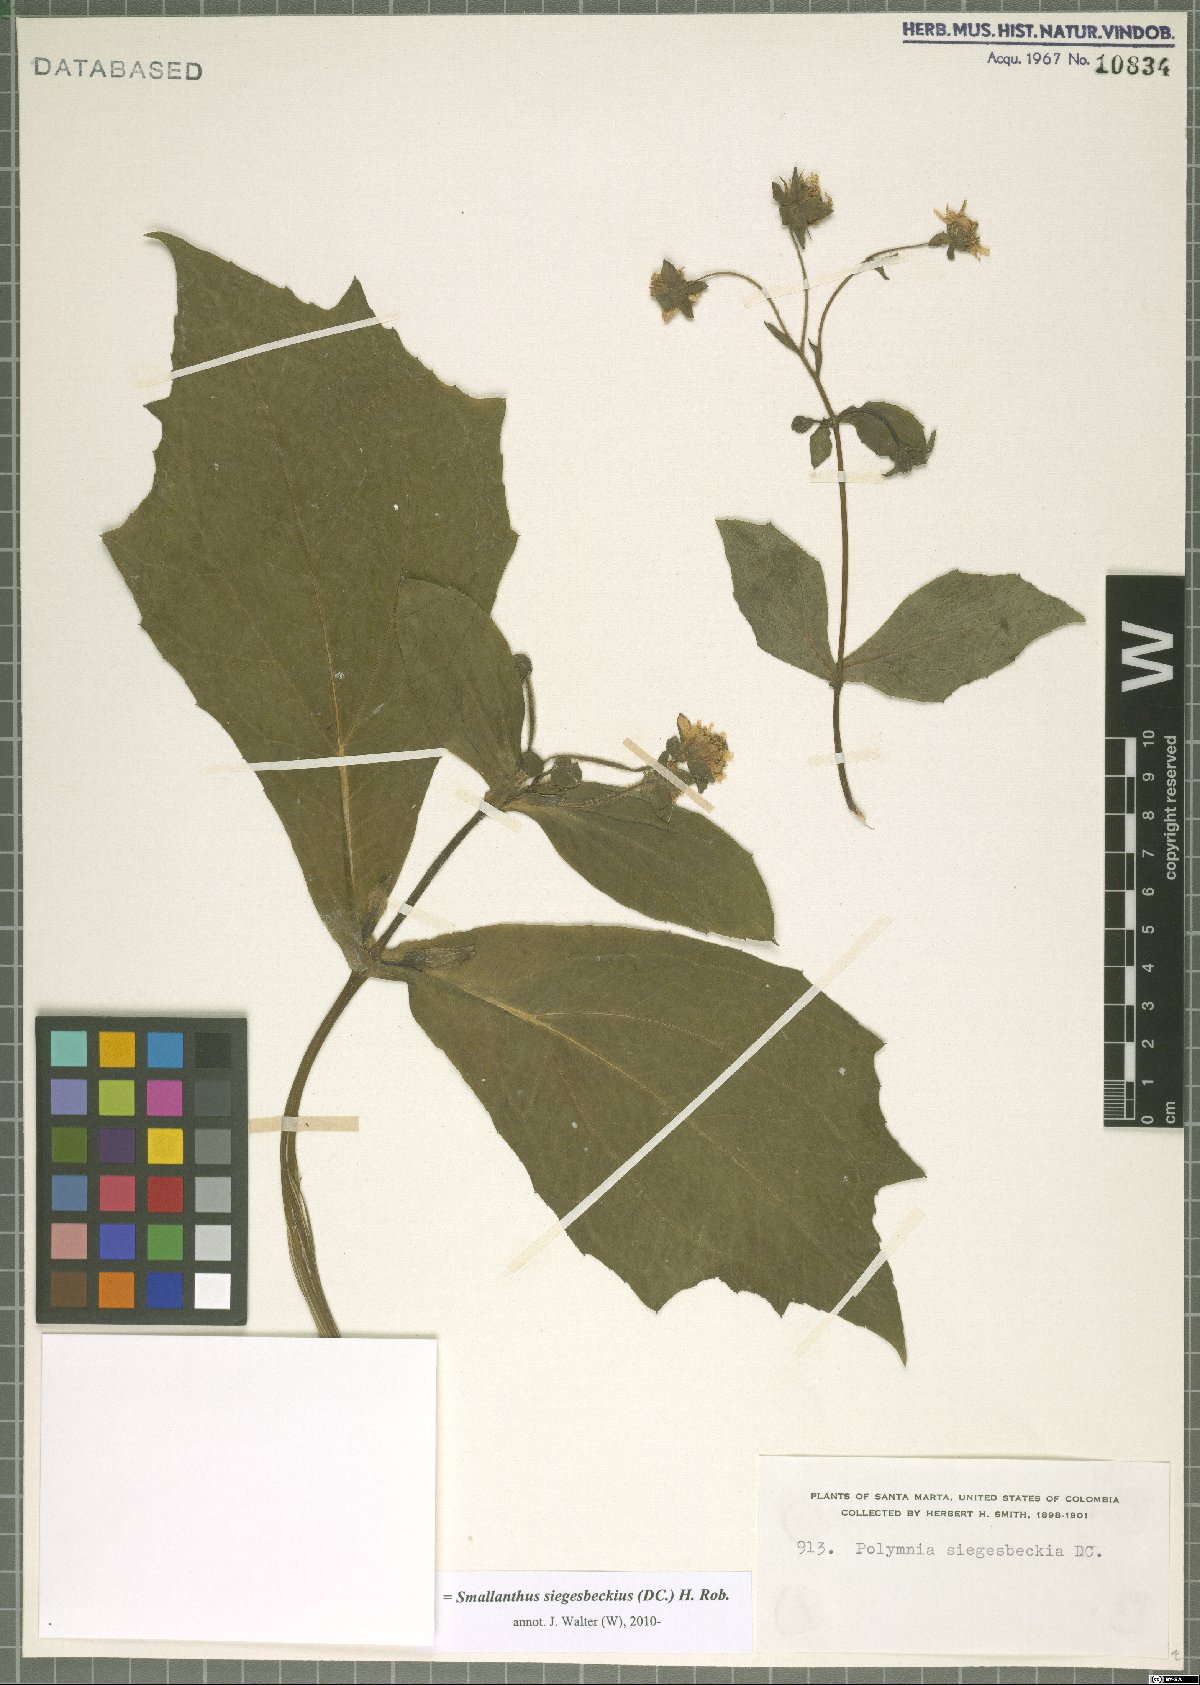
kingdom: Plantae
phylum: Tracheophyta
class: Magnoliopsida
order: Asterales
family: Asteraceae
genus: Smallanthus
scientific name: Smallanthus siegesbeckius
